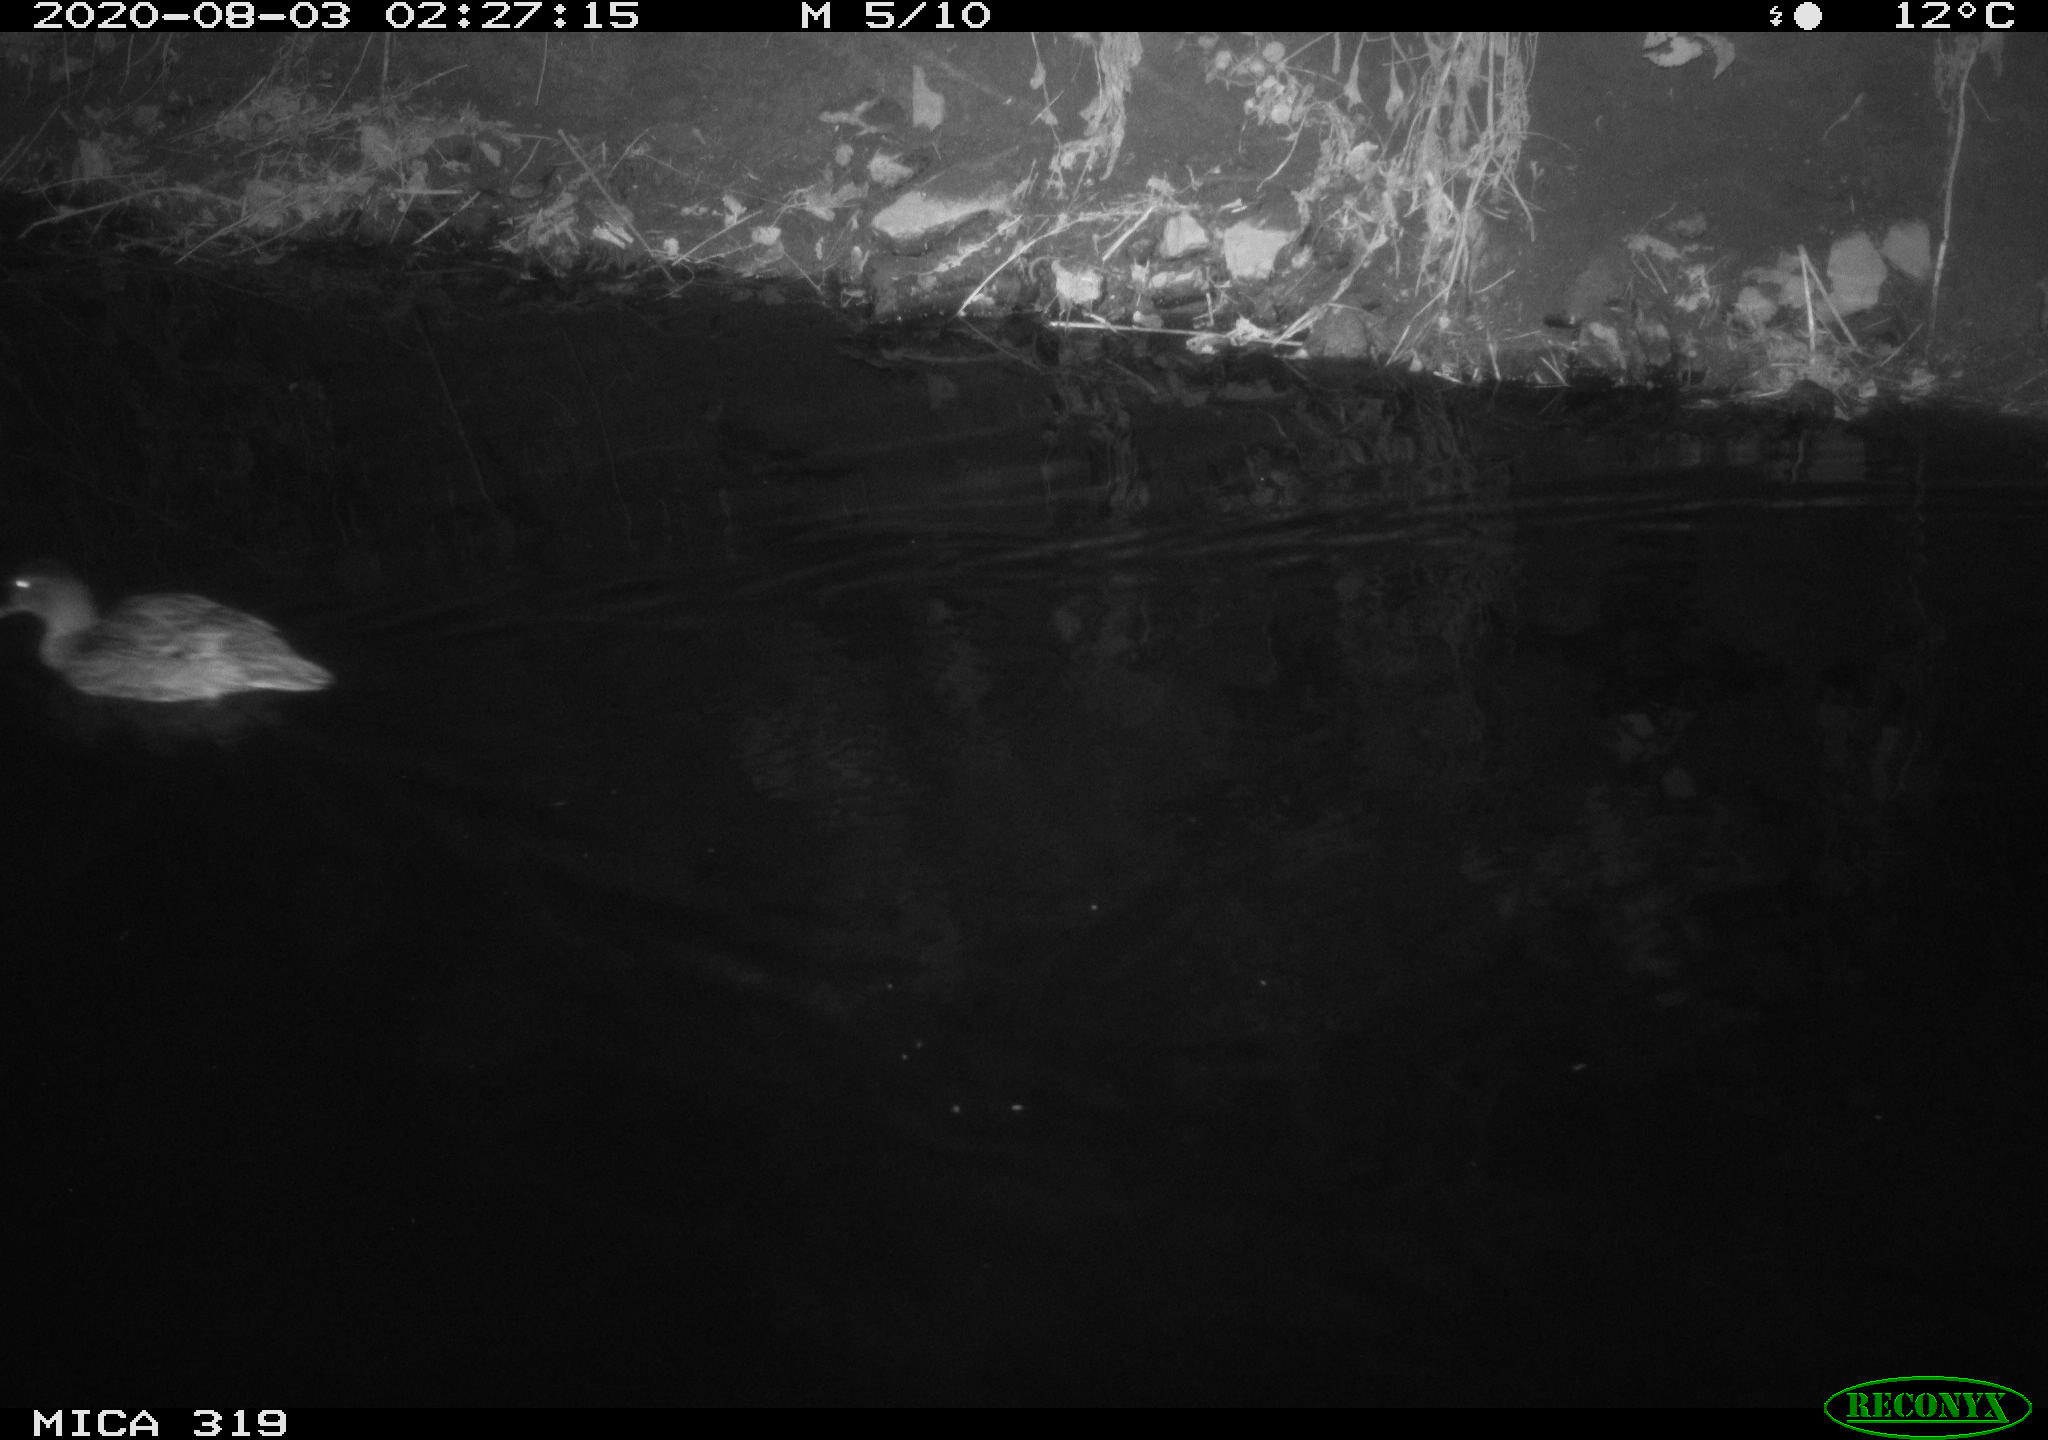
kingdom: Animalia
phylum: Chordata
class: Aves
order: Anseriformes
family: Anatidae
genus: Anas
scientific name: Anas platyrhynchos
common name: Mallard
